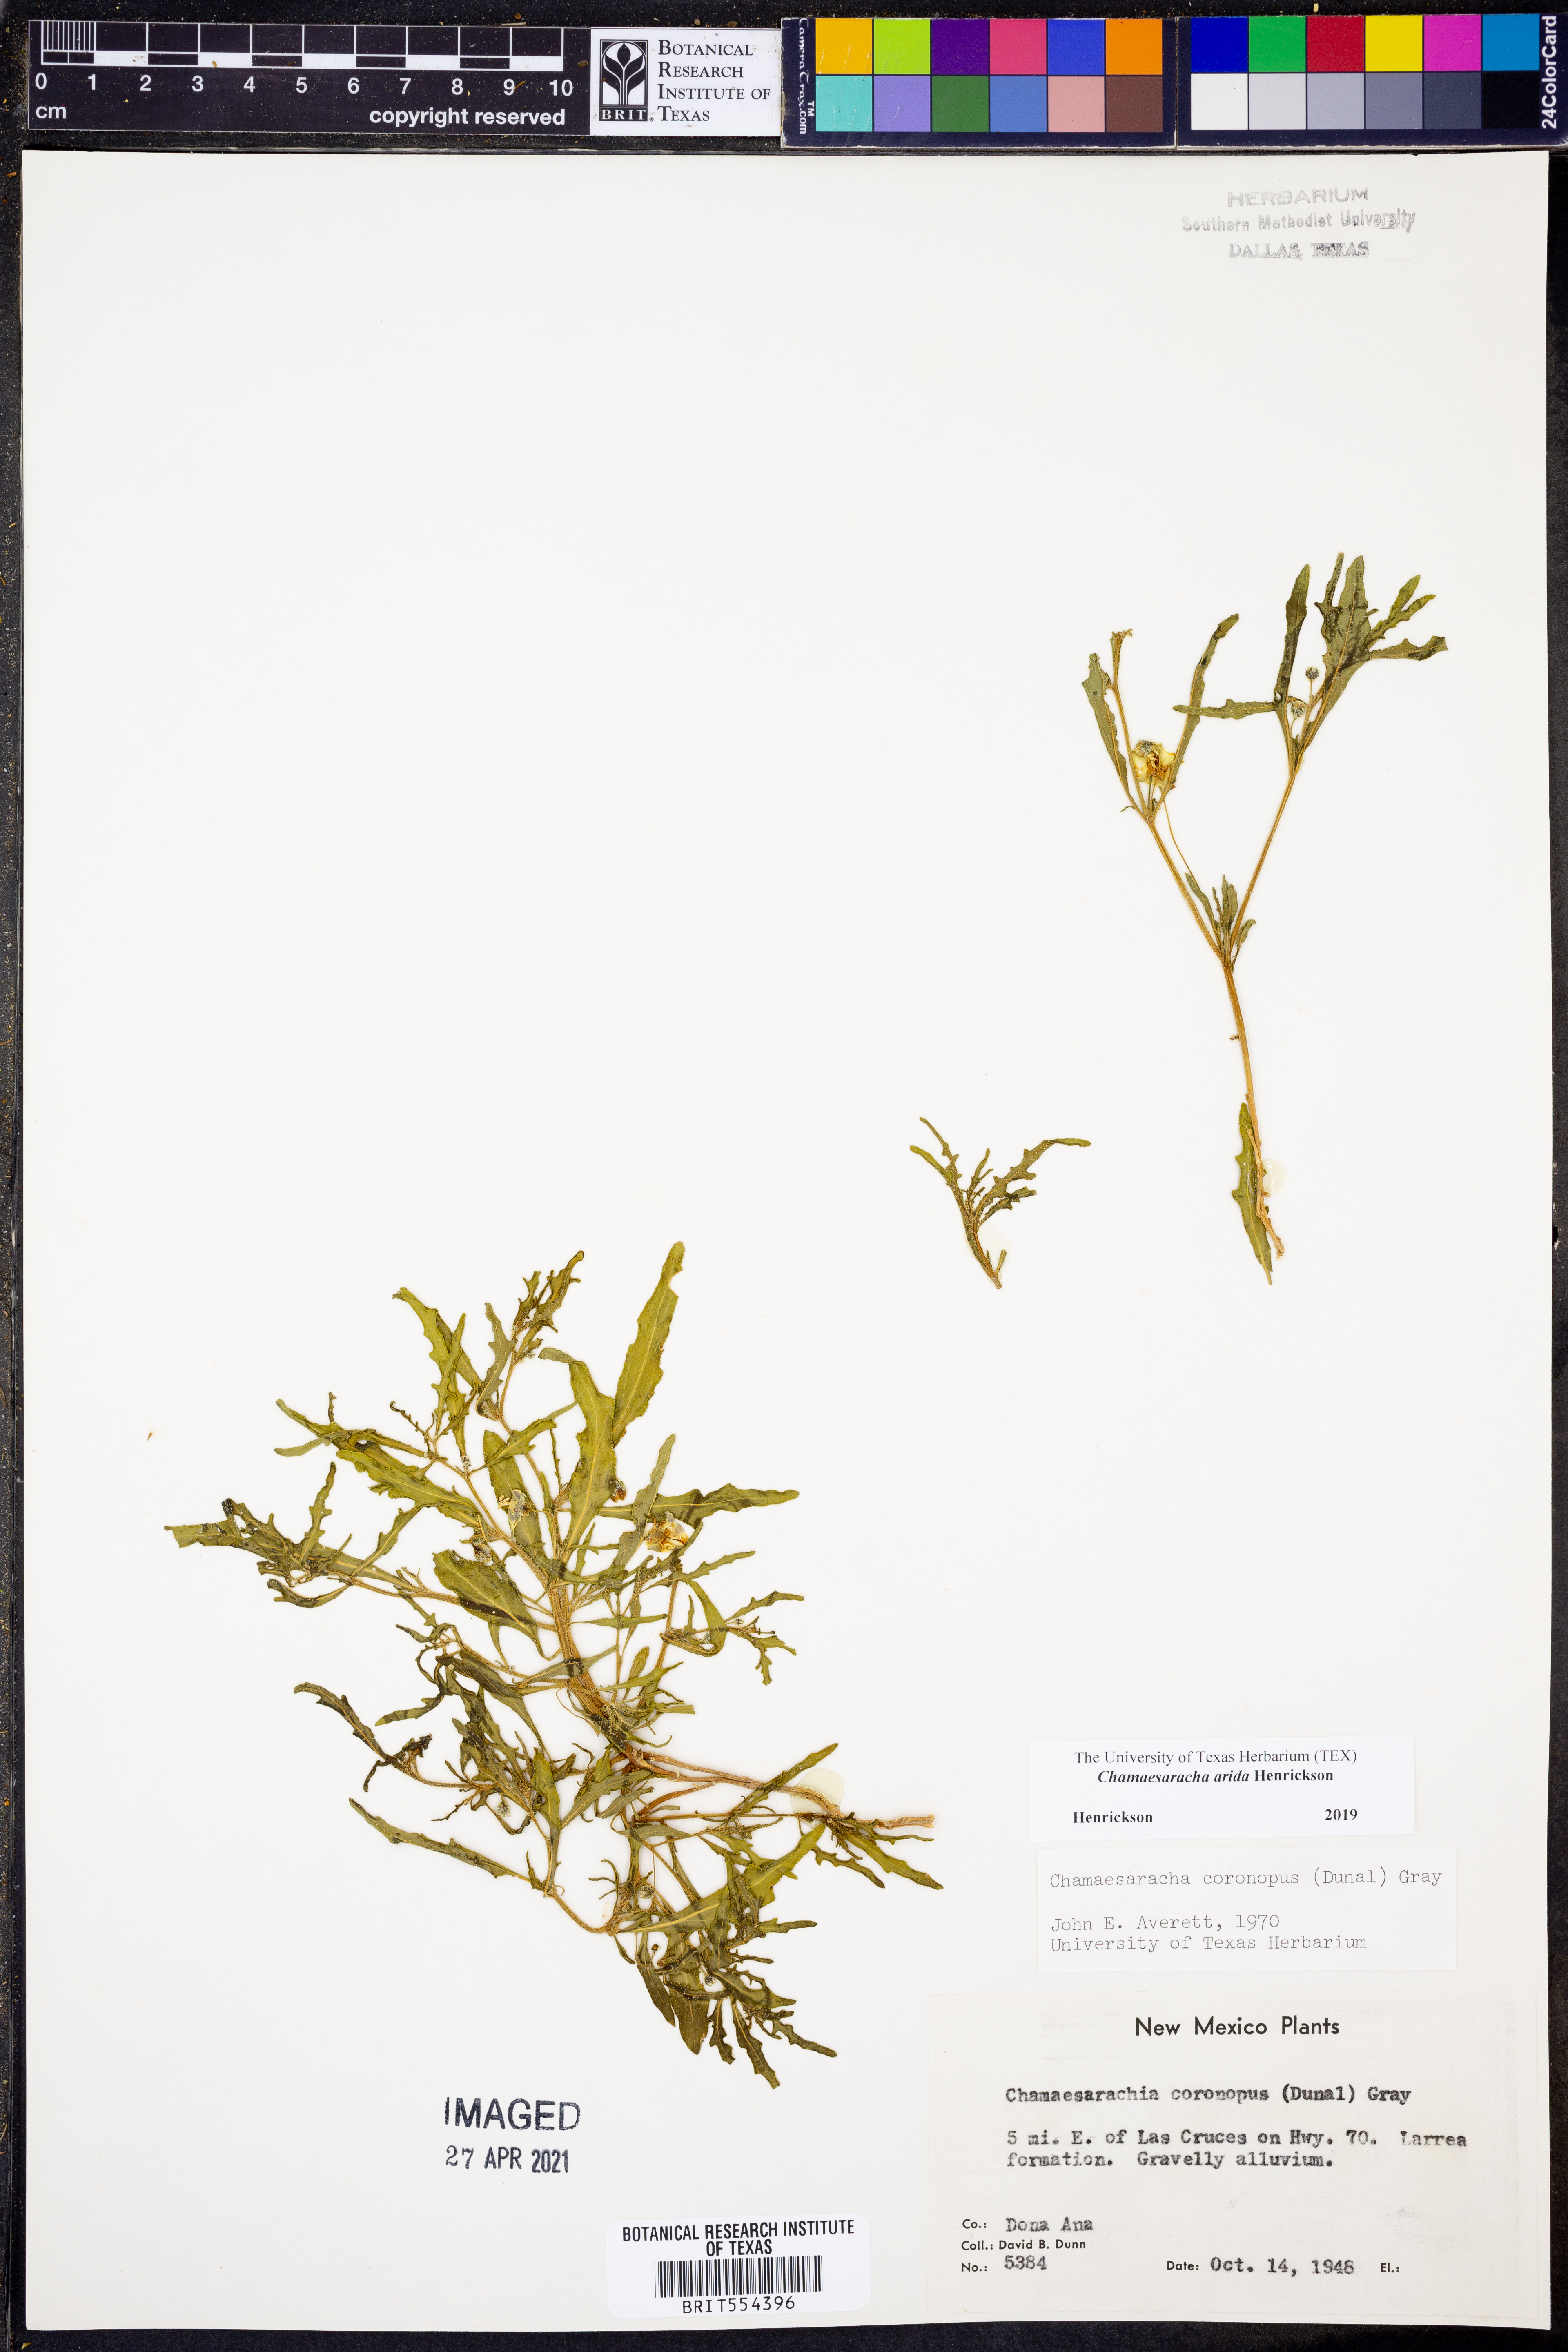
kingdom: Plantae
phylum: Tracheophyta
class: Magnoliopsida
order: Solanales
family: Solanaceae
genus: Chamaesaracha
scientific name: Chamaesaracha arida
